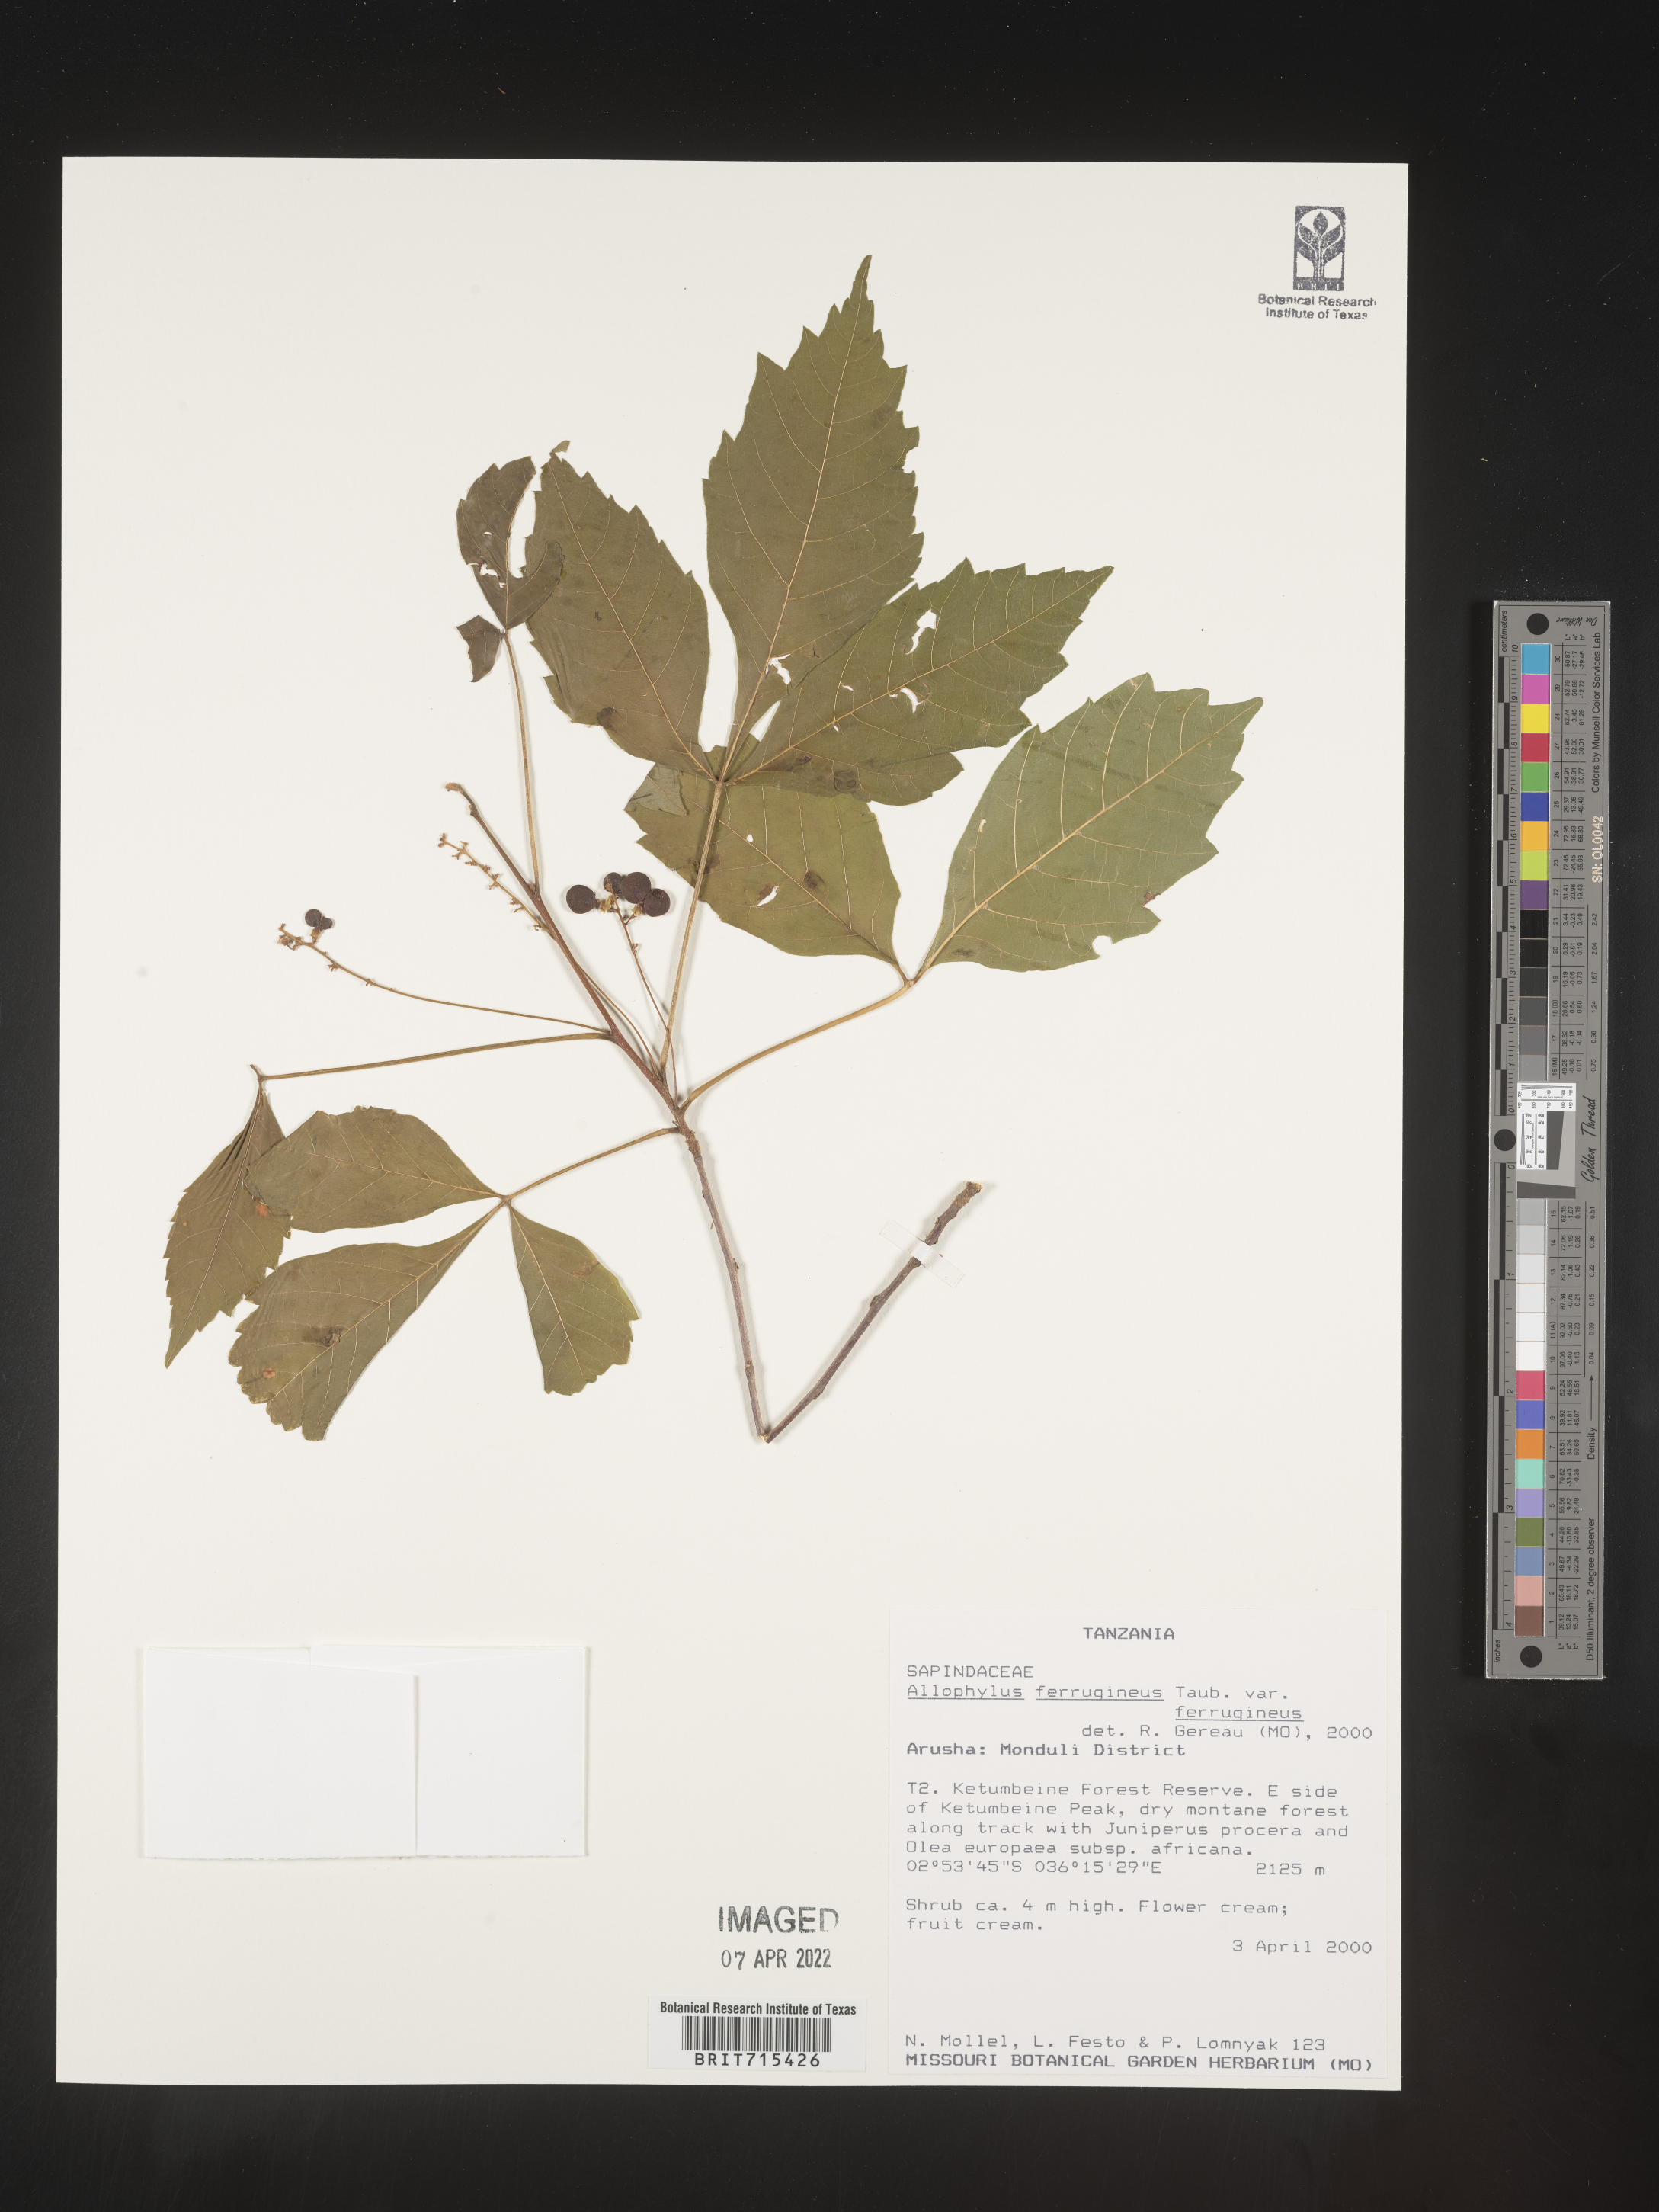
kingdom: Plantae
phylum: Tracheophyta
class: Magnoliopsida
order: Sapindales
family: Sapindaceae
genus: Allophylus
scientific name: Allophylus ferrugineus
